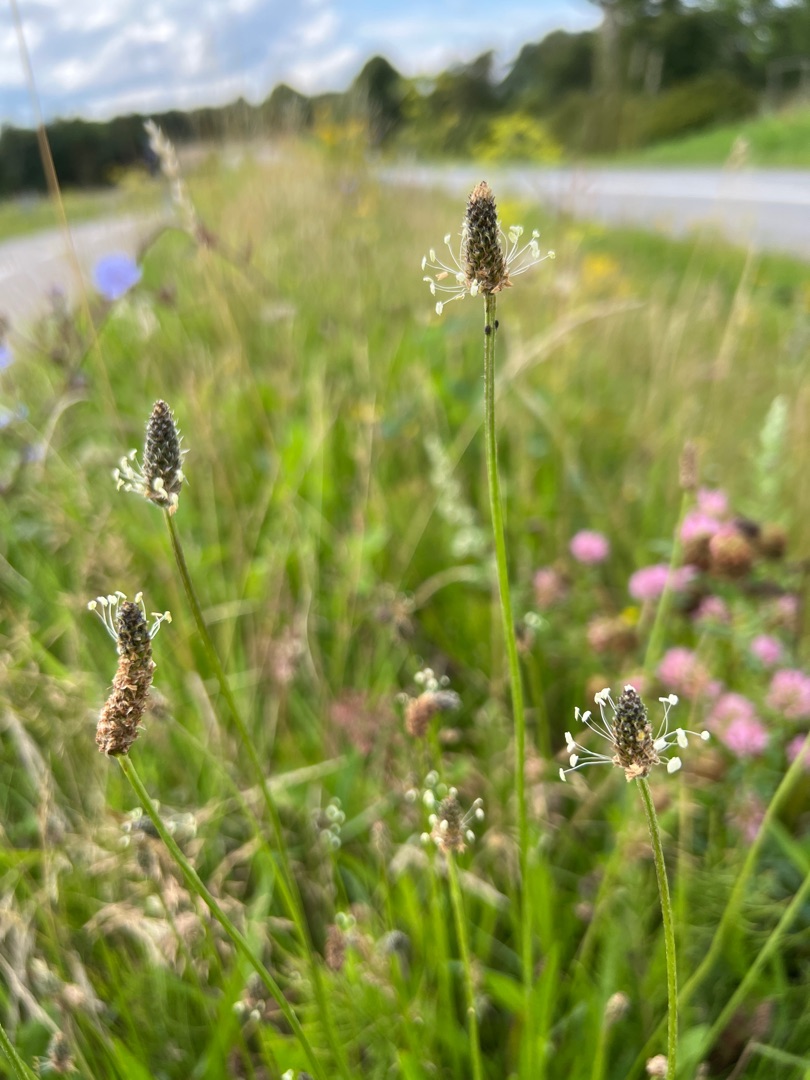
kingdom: Plantae
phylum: Tracheophyta
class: Magnoliopsida
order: Lamiales
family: Plantaginaceae
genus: Plantago
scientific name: Plantago lanceolata
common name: Lancet-vejbred
